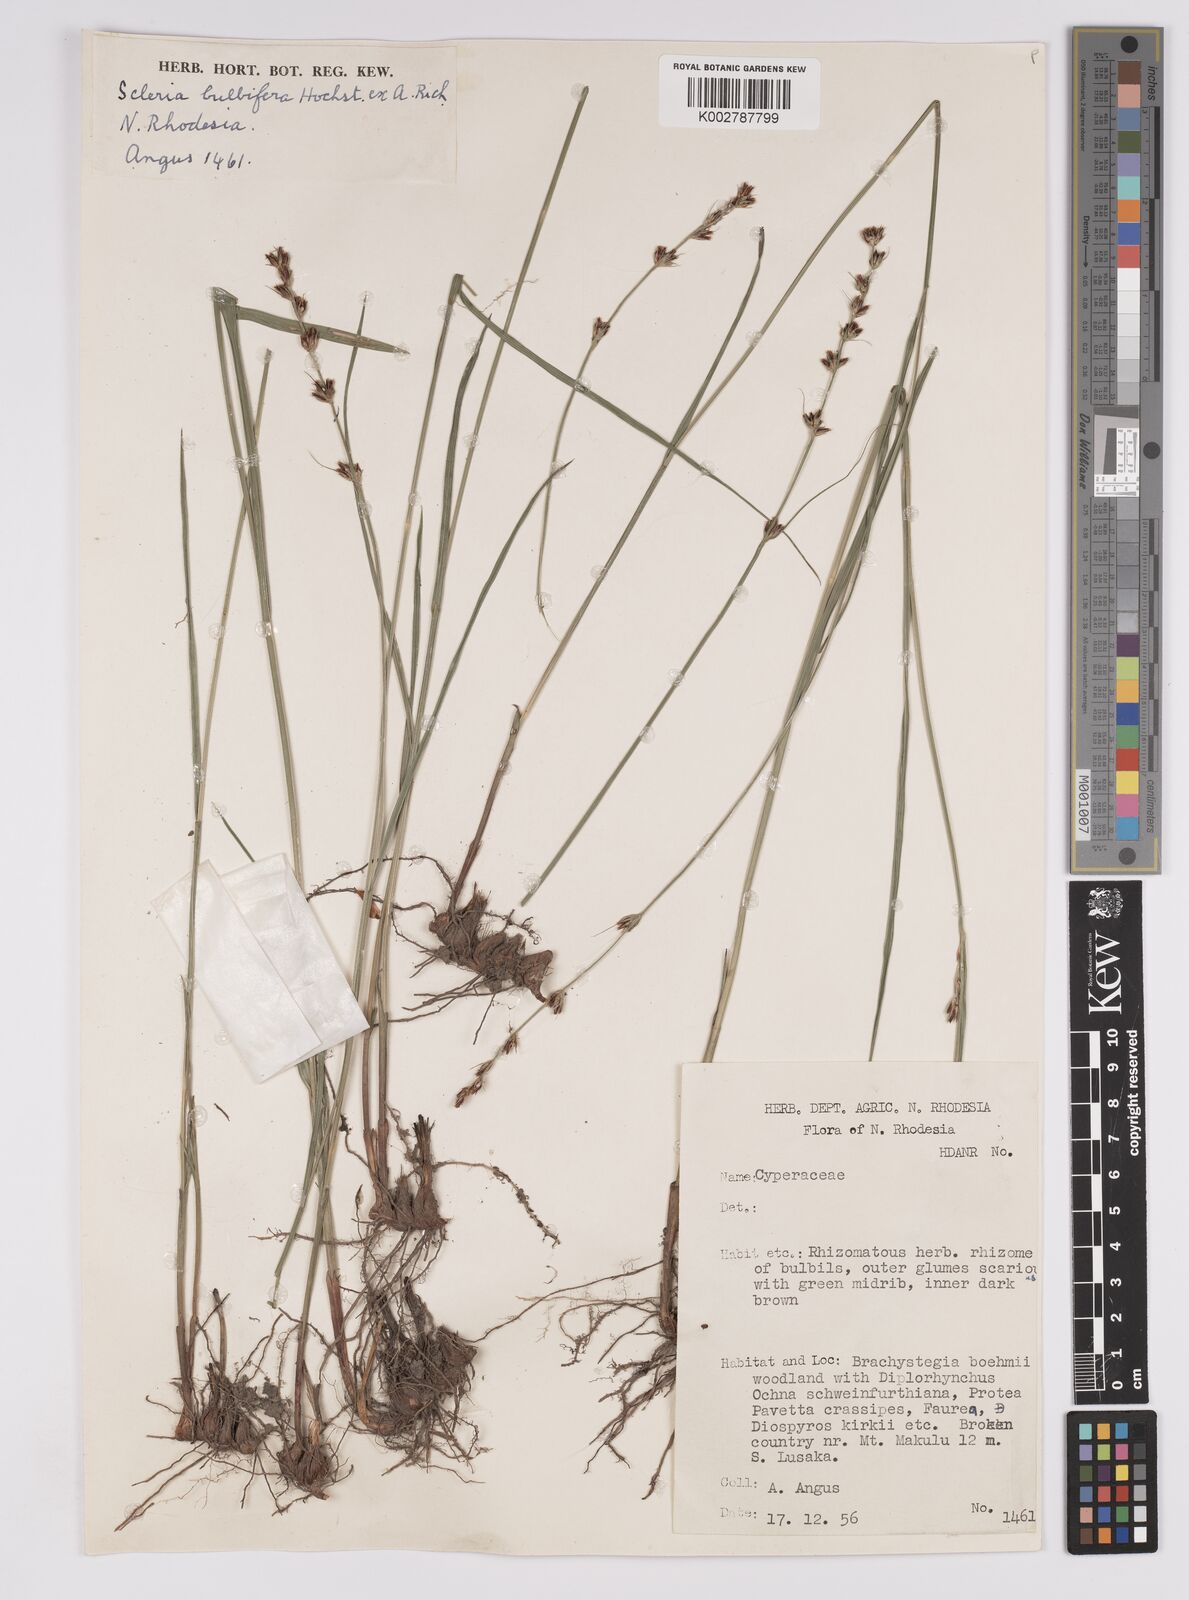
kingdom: Plantae
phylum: Tracheophyta
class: Liliopsida
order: Poales
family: Cyperaceae
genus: Scleria
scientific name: Scleria bulbifera
